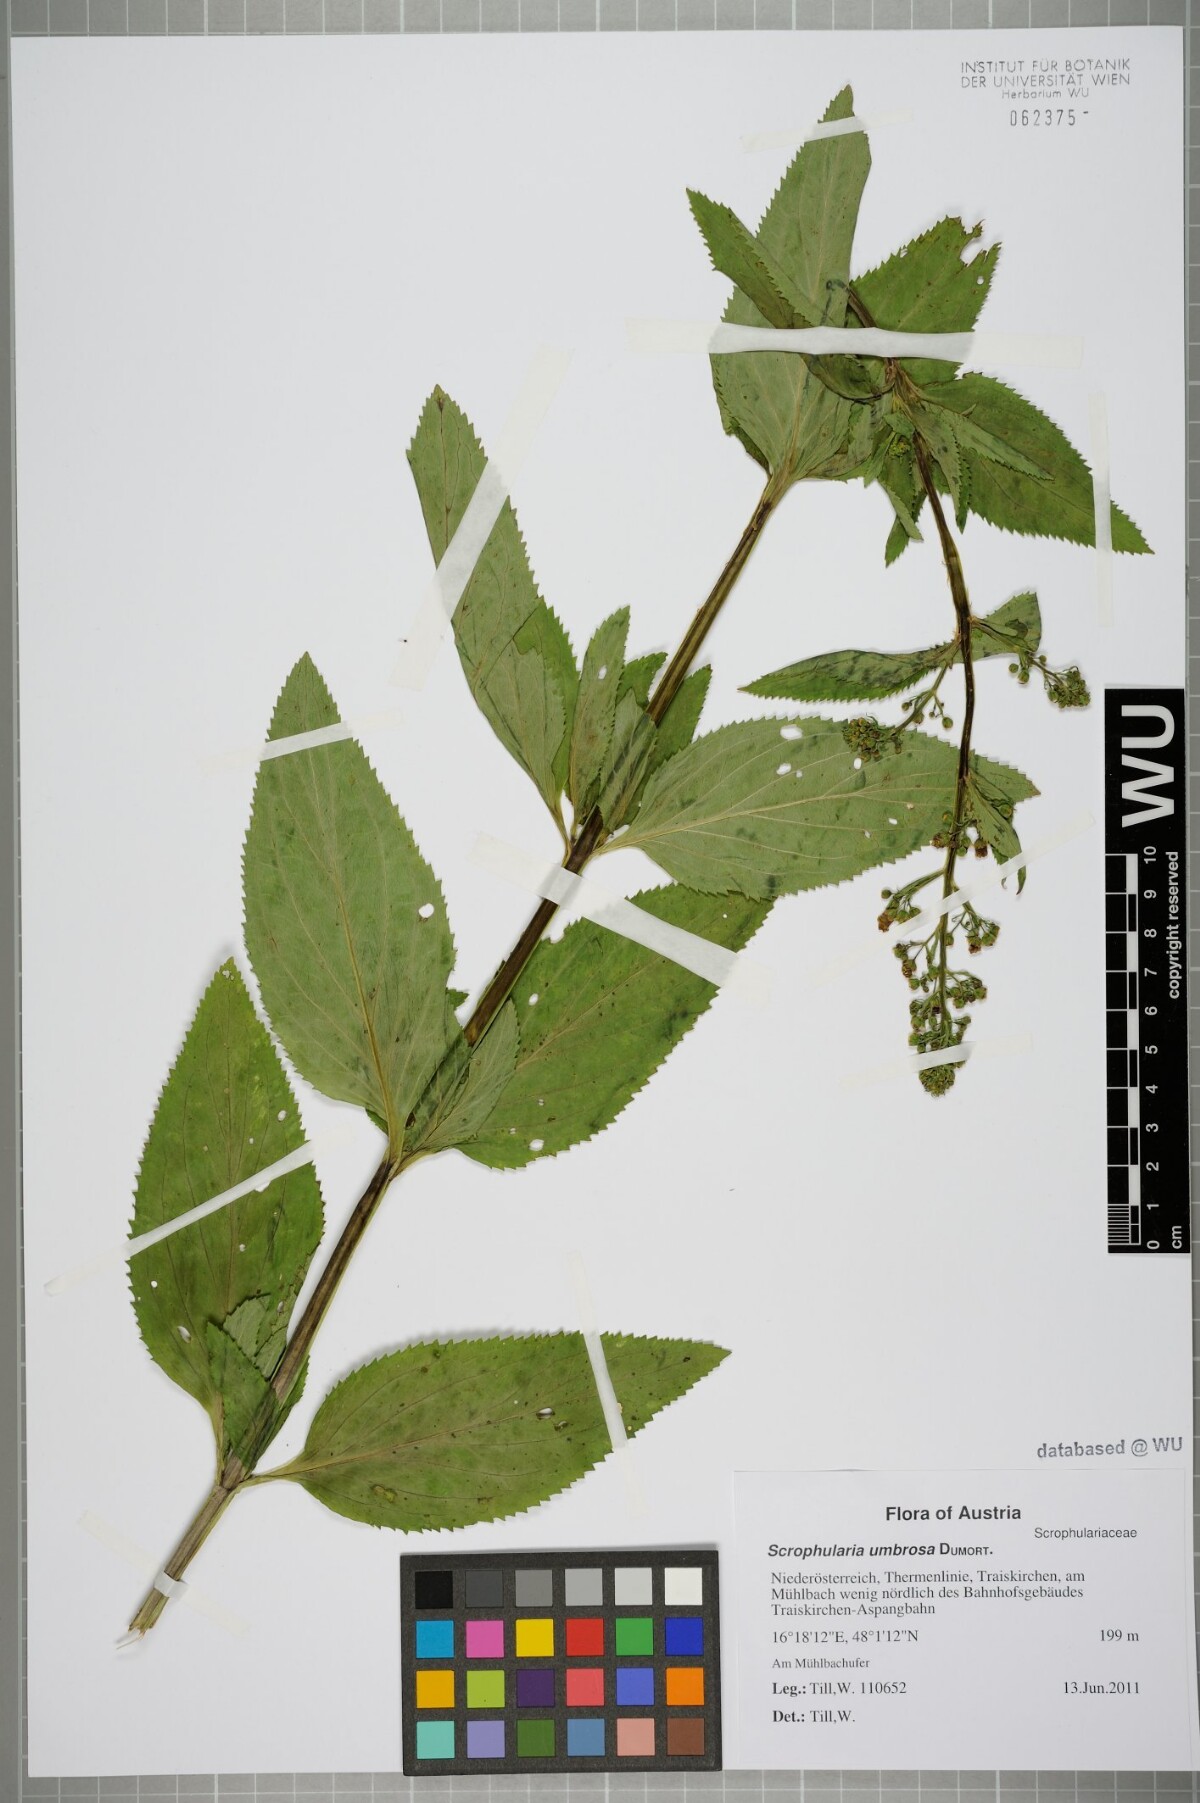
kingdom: Plantae
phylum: Tracheophyta
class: Magnoliopsida
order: Lamiales
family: Scrophulariaceae
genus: Scrophularia
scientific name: Scrophularia umbrosa
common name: Green figwort
